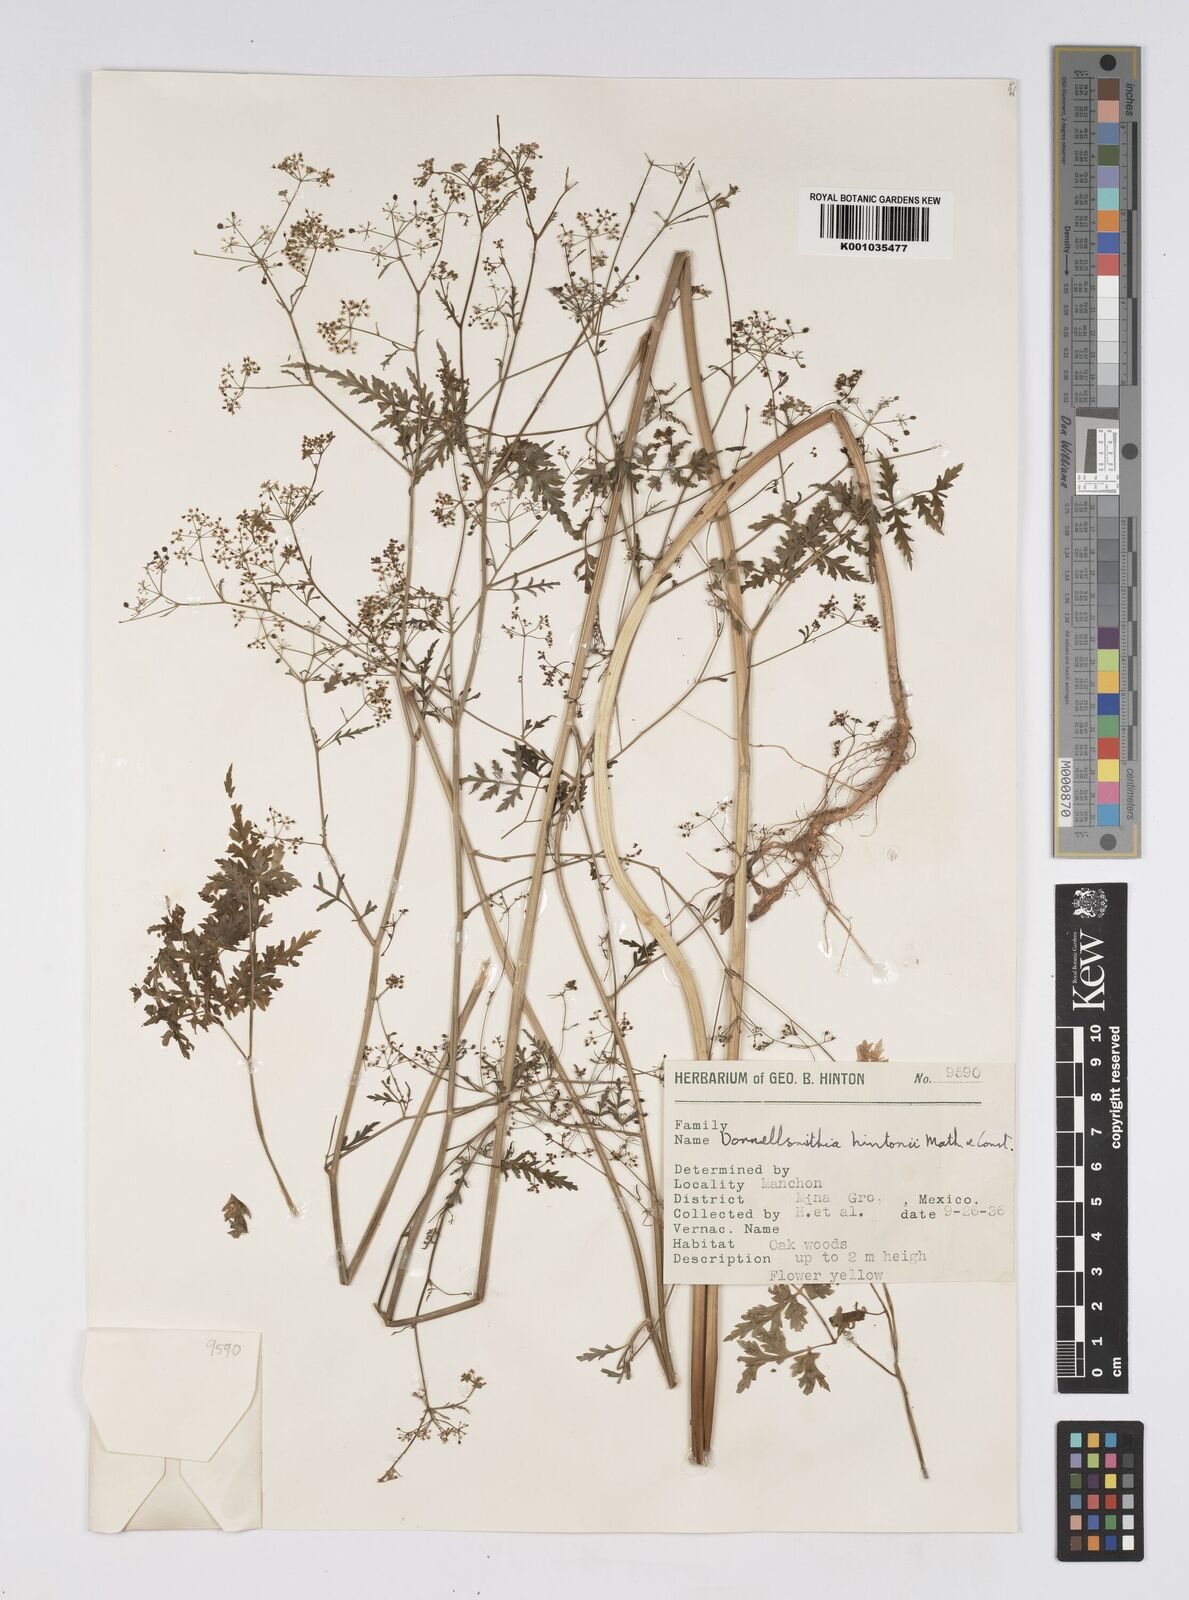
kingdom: Plantae
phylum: Tracheophyta
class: Magnoliopsida
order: Apiales
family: Apiaceae
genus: Donnellsmithia
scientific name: Donnellsmithia hintonii
